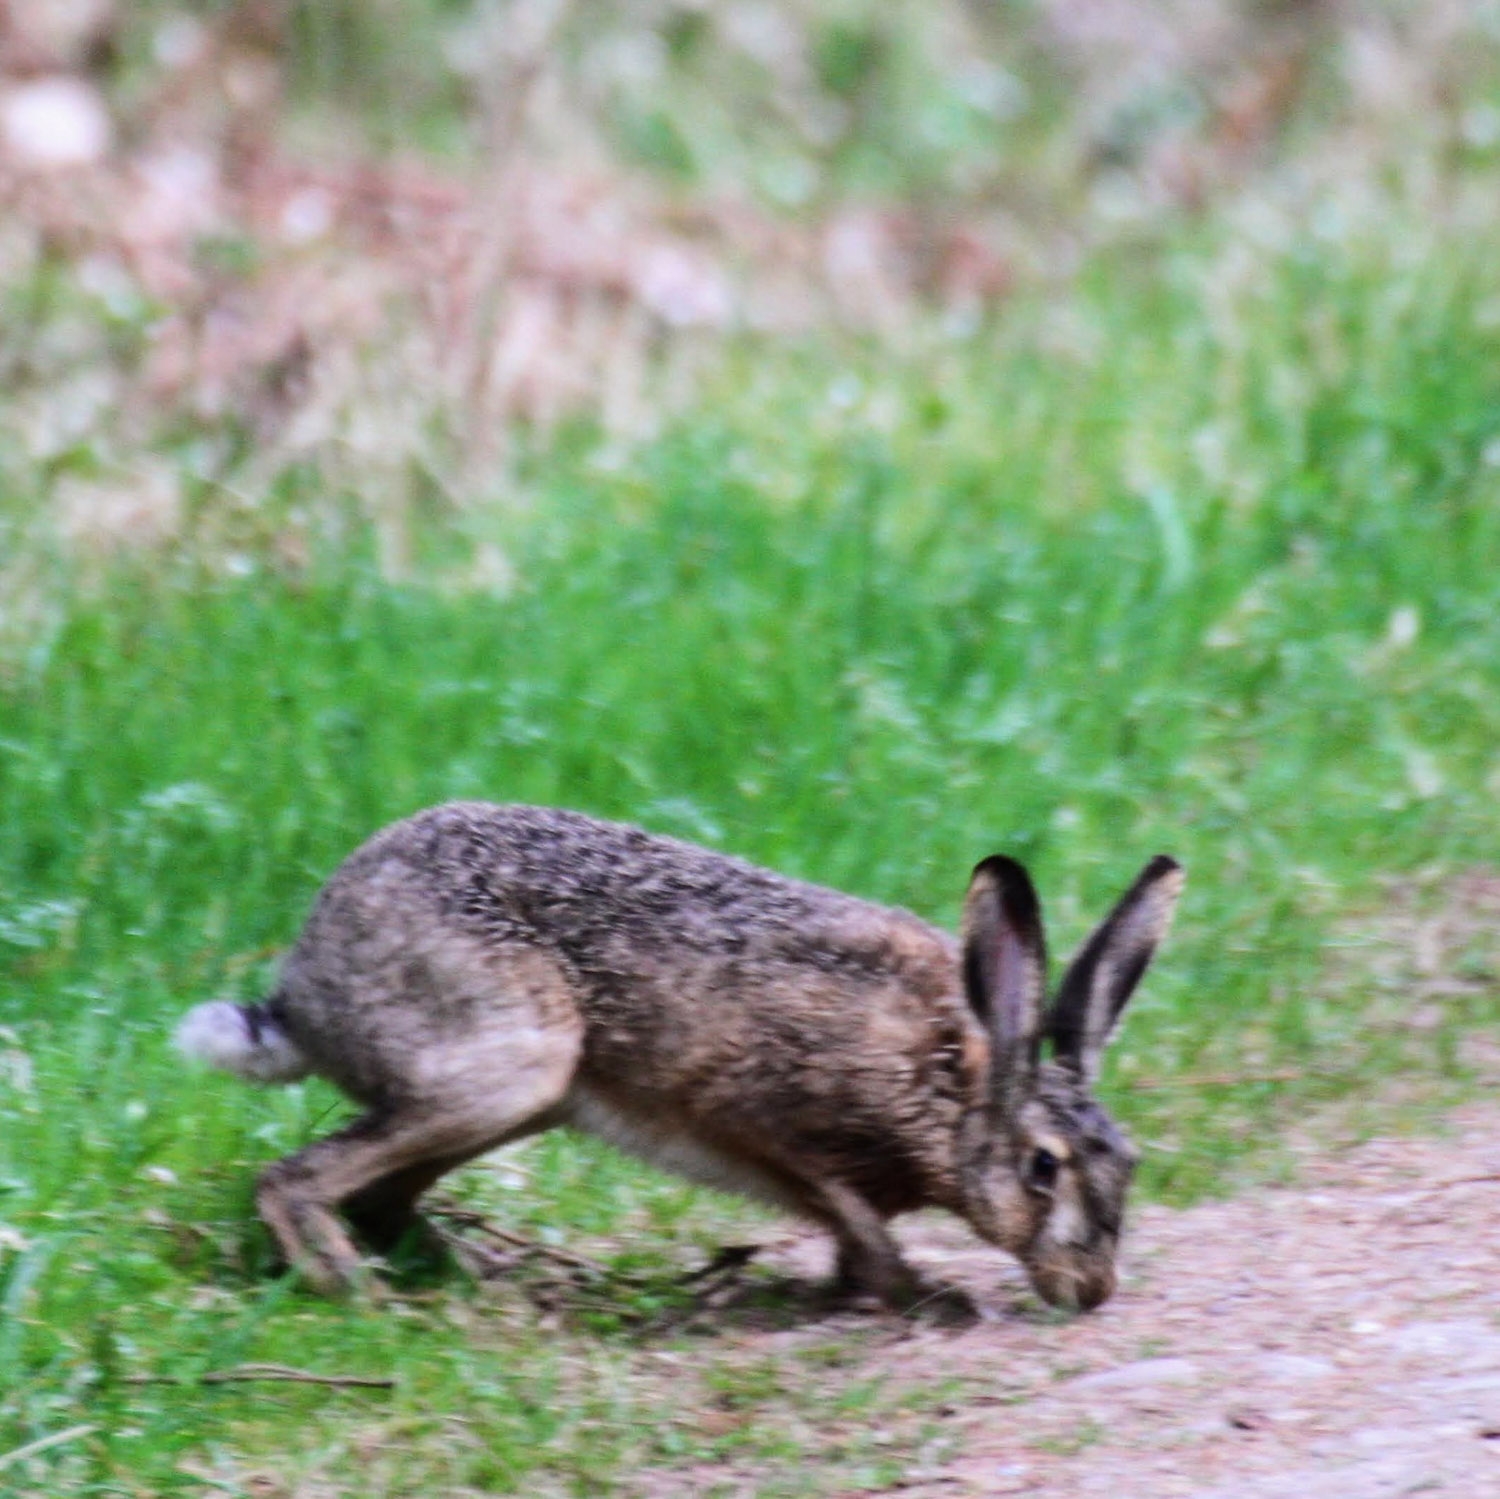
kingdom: Animalia
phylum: Chordata
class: Mammalia
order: Lagomorpha
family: Leporidae
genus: Lepus
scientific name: Lepus europaeus
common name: Hare
